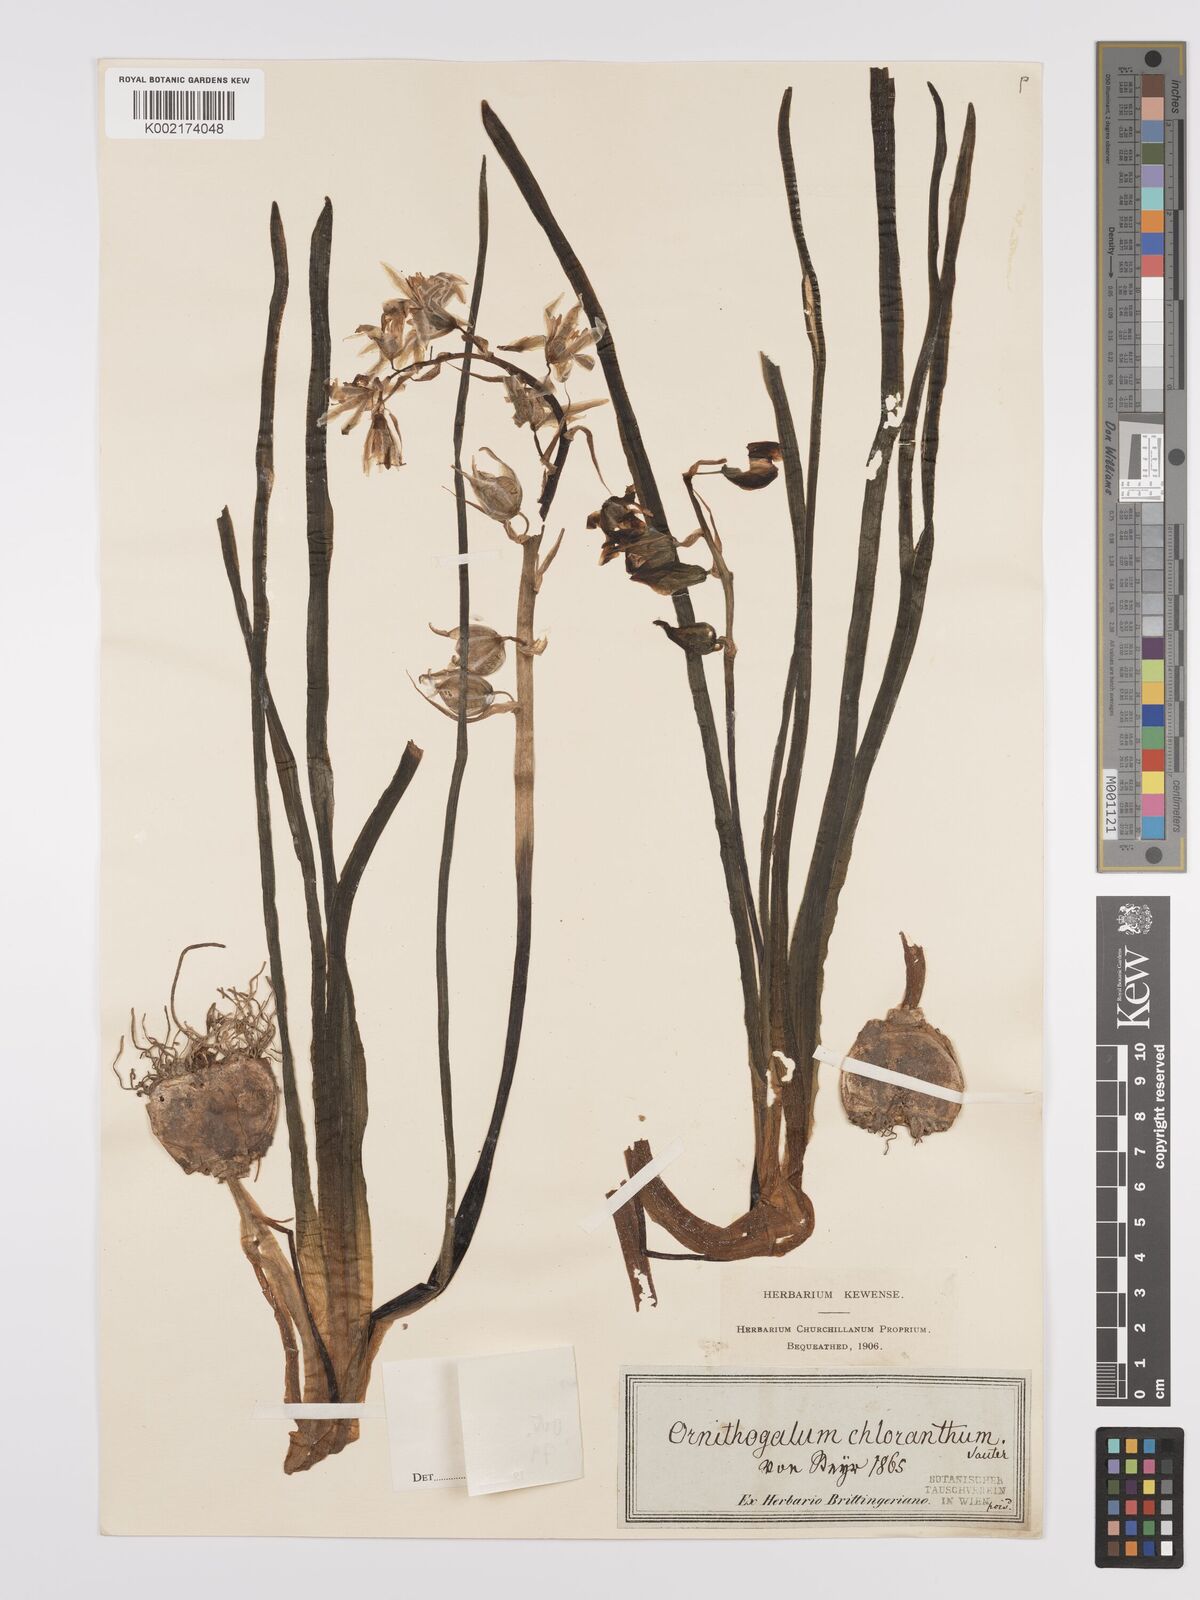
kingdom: Plantae
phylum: Tracheophyta
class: Liliopsida
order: Asparagales
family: Asparagaceae
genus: Ornithogalum
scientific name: Ornithogalum boucheanum
